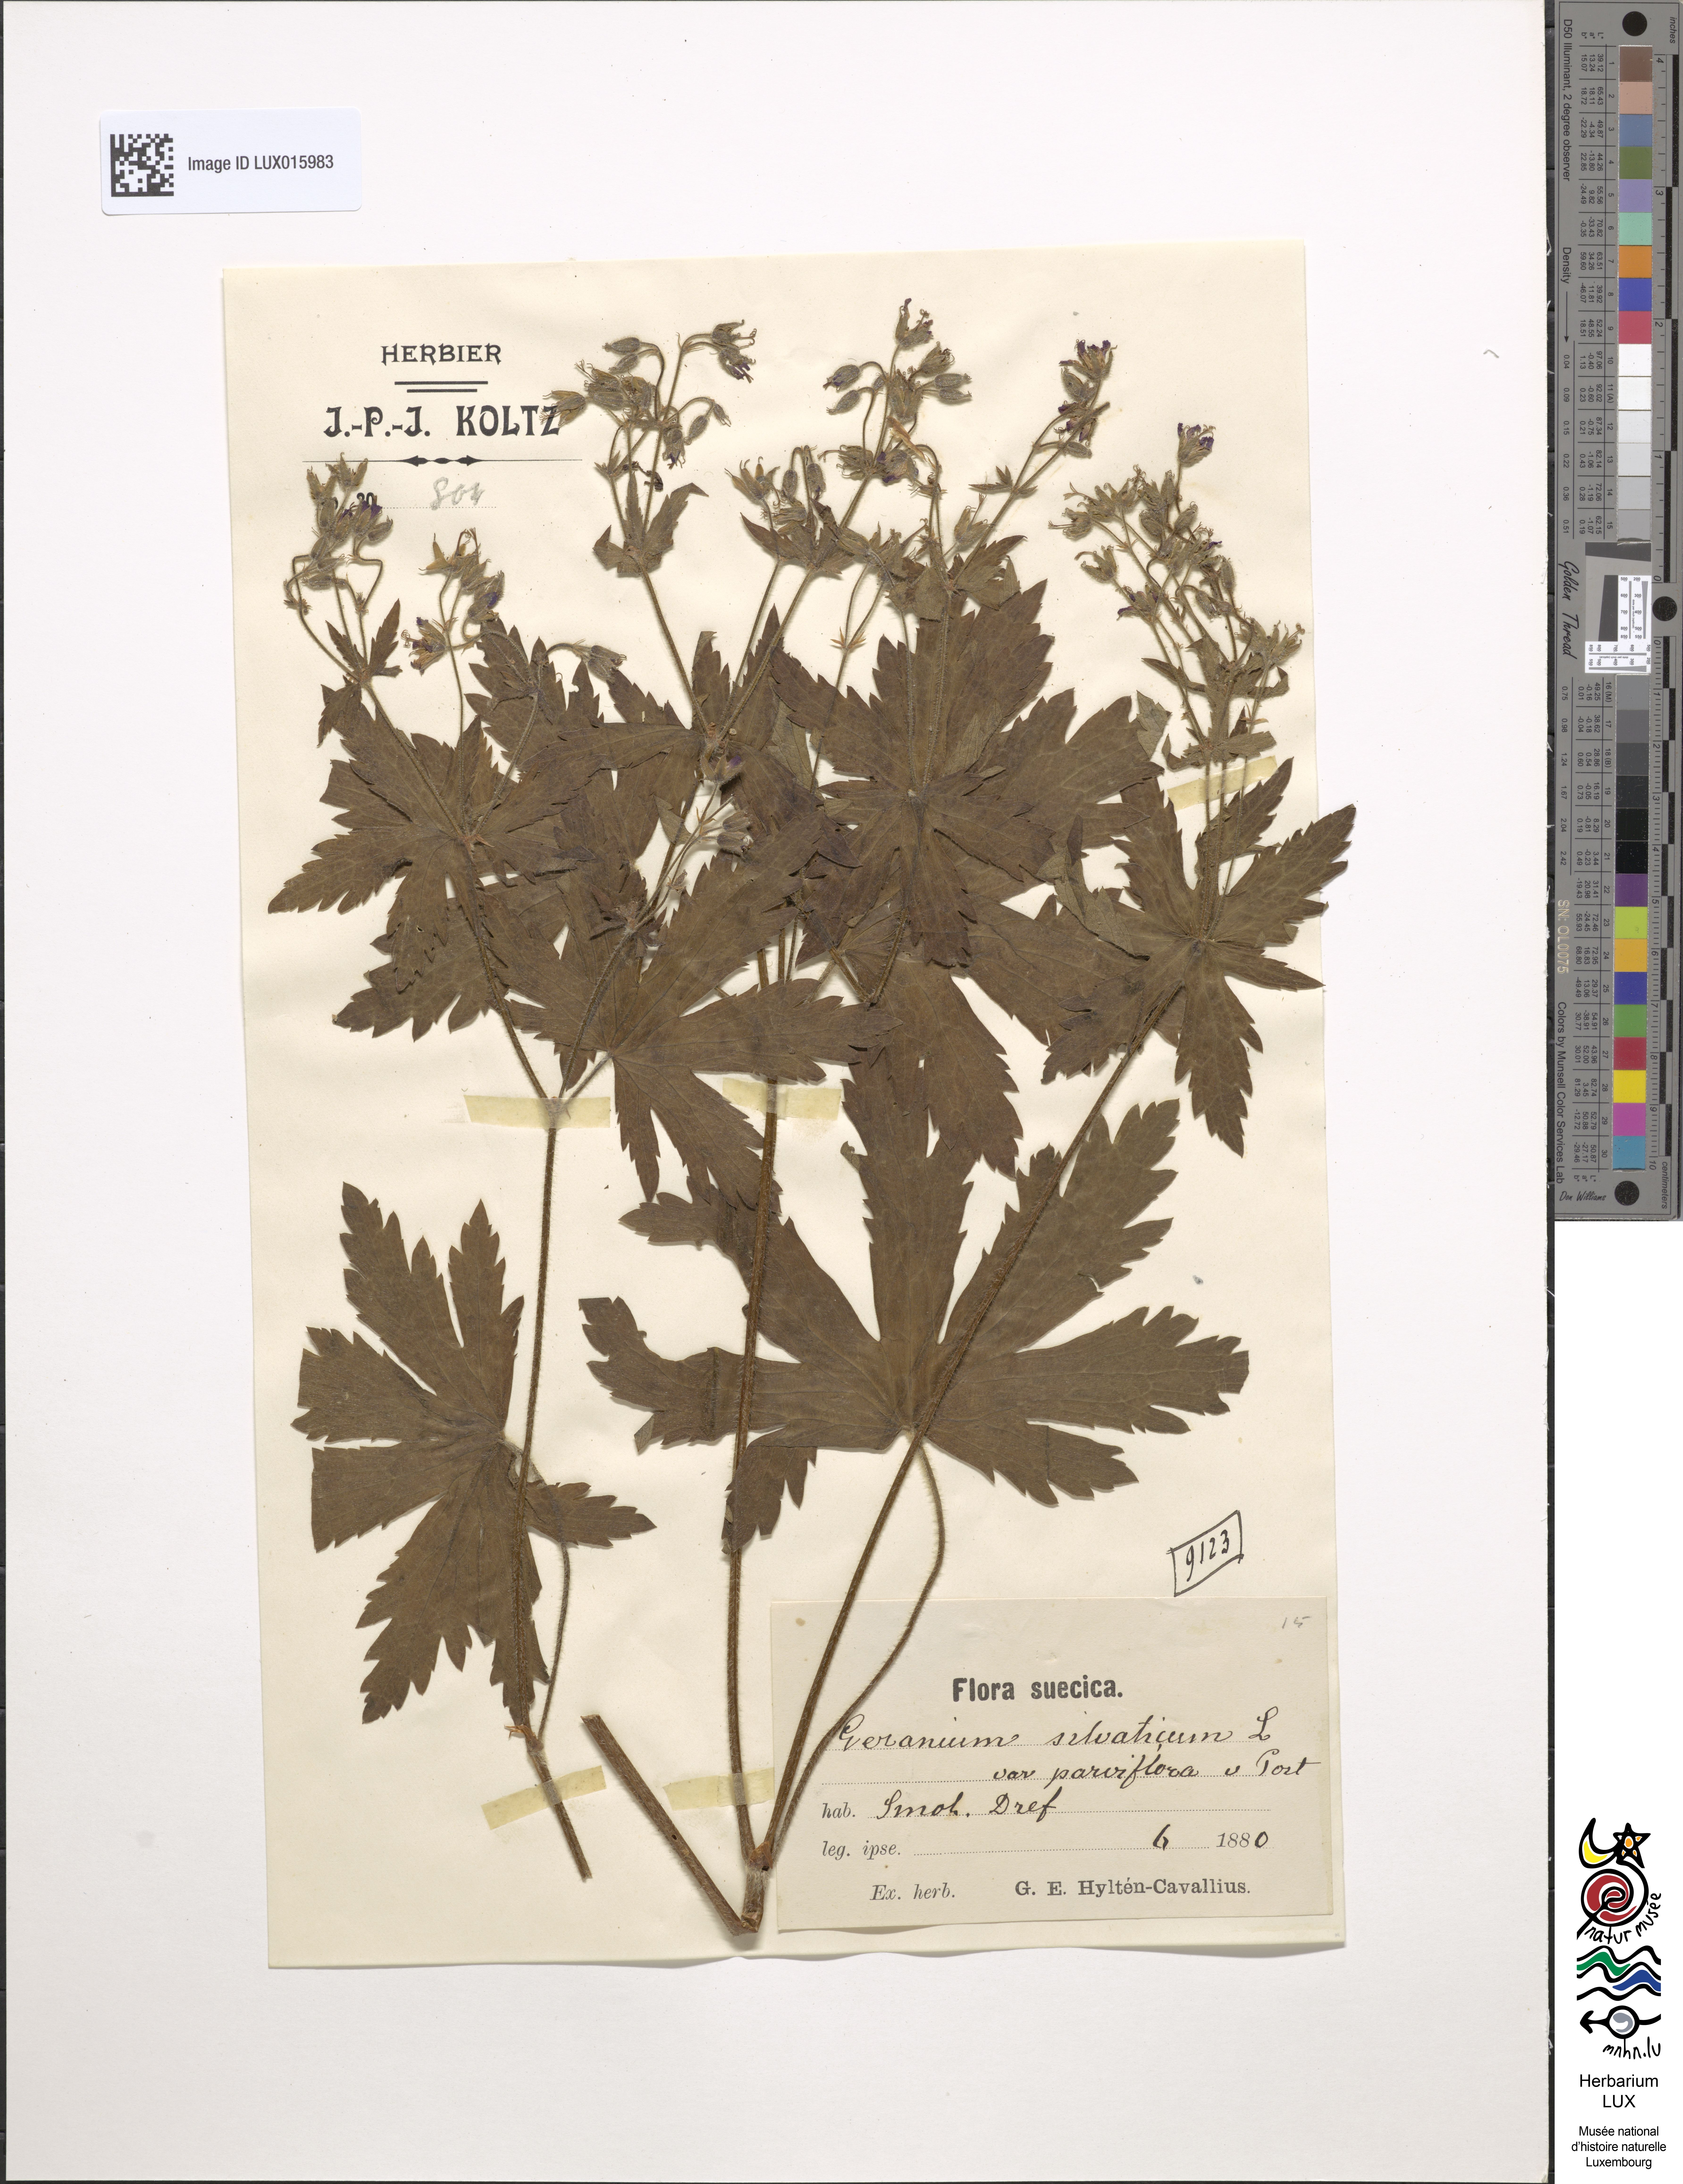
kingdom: Plantae
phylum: Tracheophyta
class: Magnoliopsida
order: Geraniales
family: Geraniaceae
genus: Geranium
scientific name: Geranium sylvaticum
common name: Wood crane's-bill
